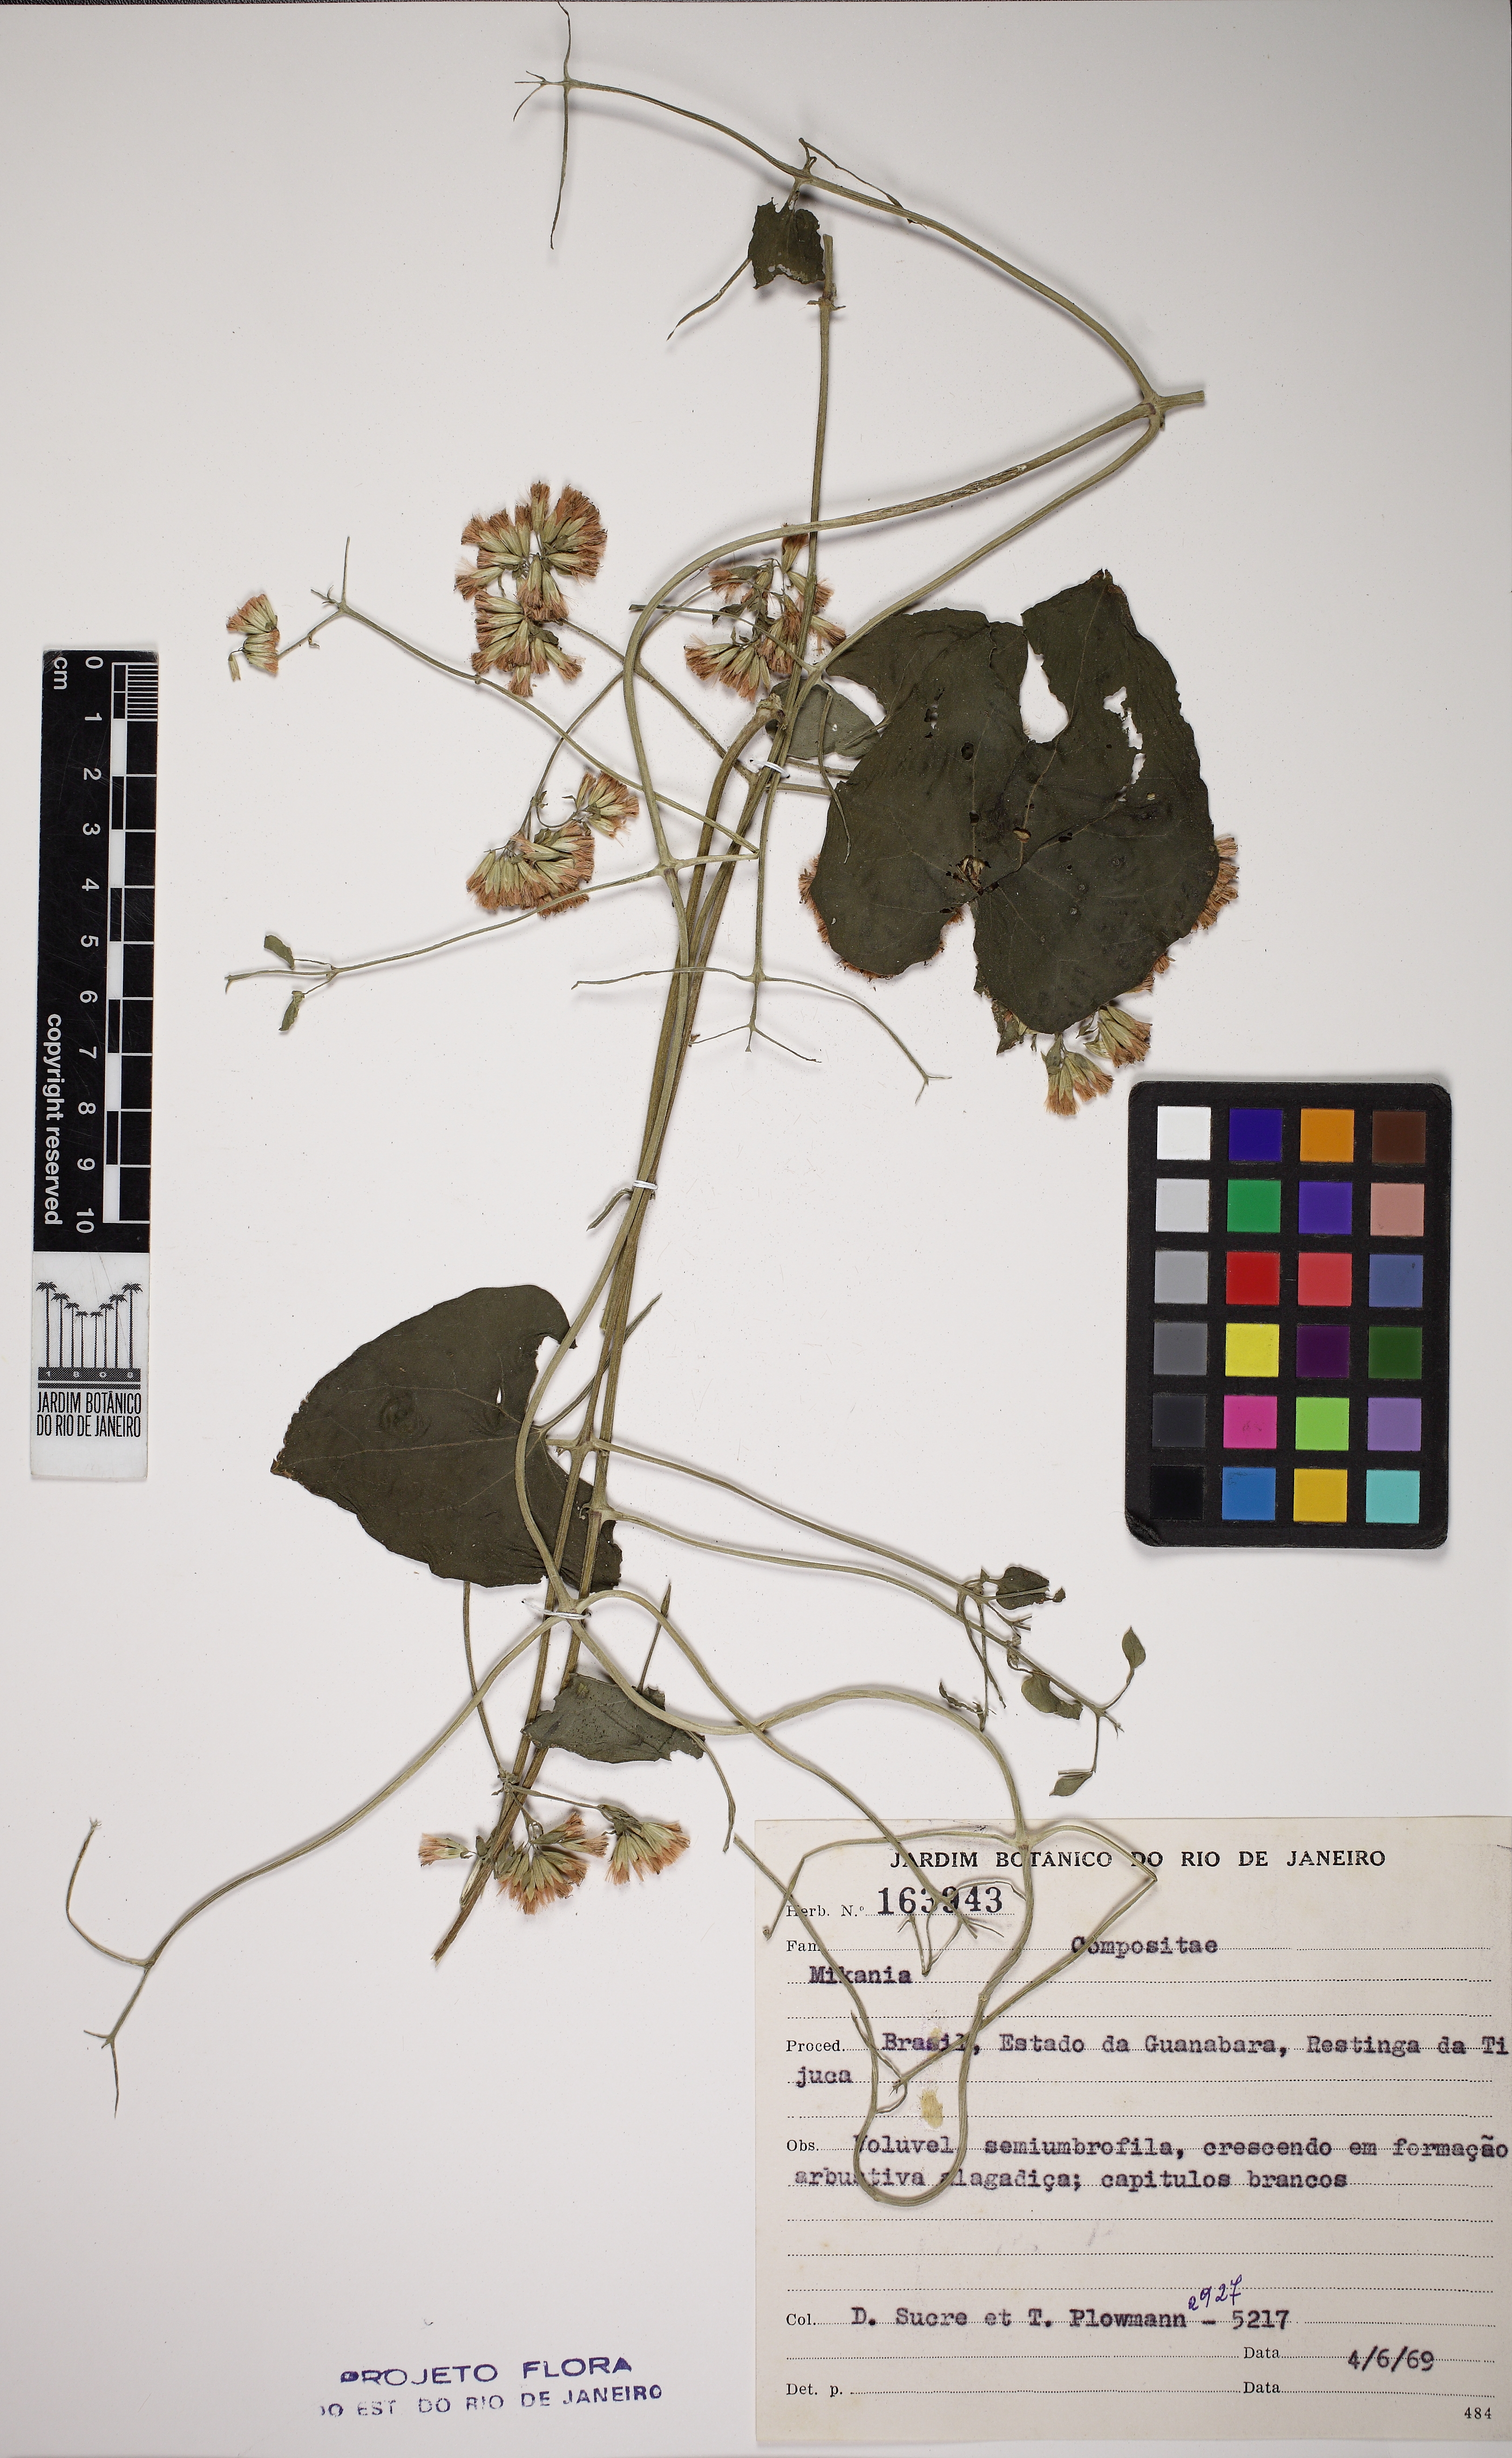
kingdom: Plantae
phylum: Tracheophyta
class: Magnoliopsida
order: Asterales
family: Asteraceae
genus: Mikania
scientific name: Mikania cordifolia
